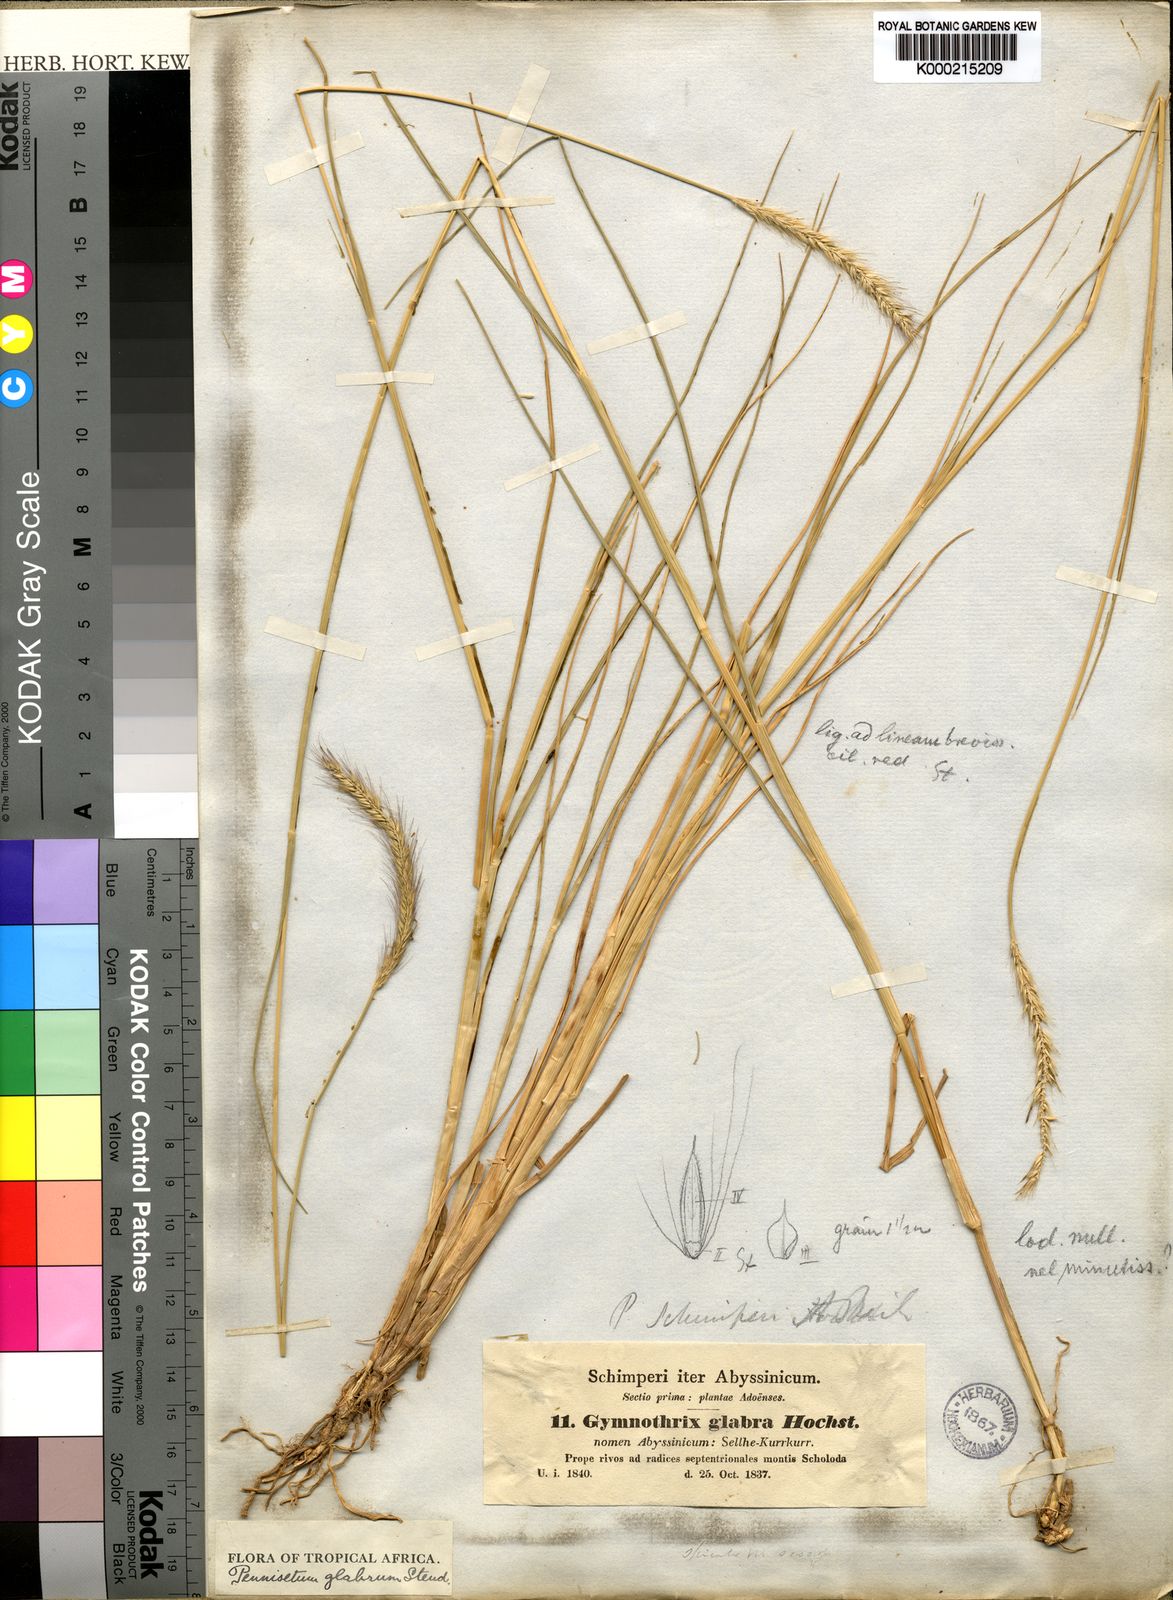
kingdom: Plantae
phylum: Tracheophyta
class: Liliopsida
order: Poales
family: Poaceae
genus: Cenchrus
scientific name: Cenchrus geniculatus
